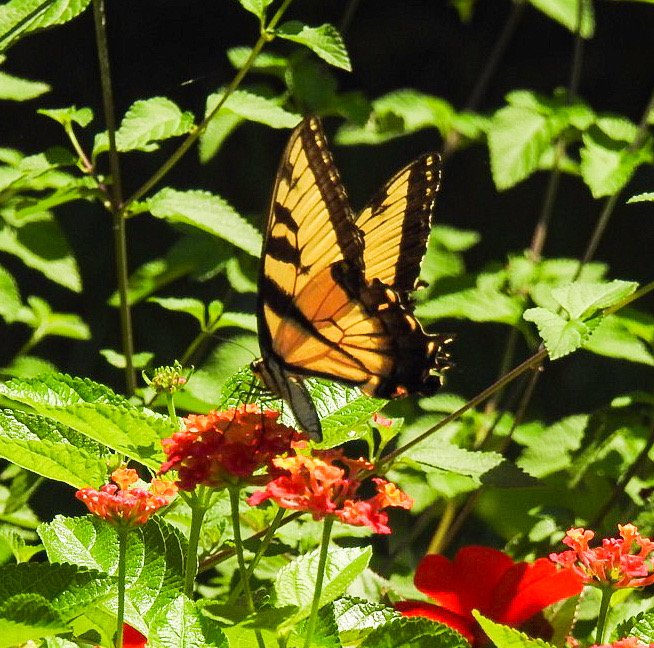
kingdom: Animalia
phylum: Arthropoda
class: Insecta
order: Lepidoptera
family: Papilionidae
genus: Pterourus
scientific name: Pterourus glaucus
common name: Eastern Tiger Swallowtail
